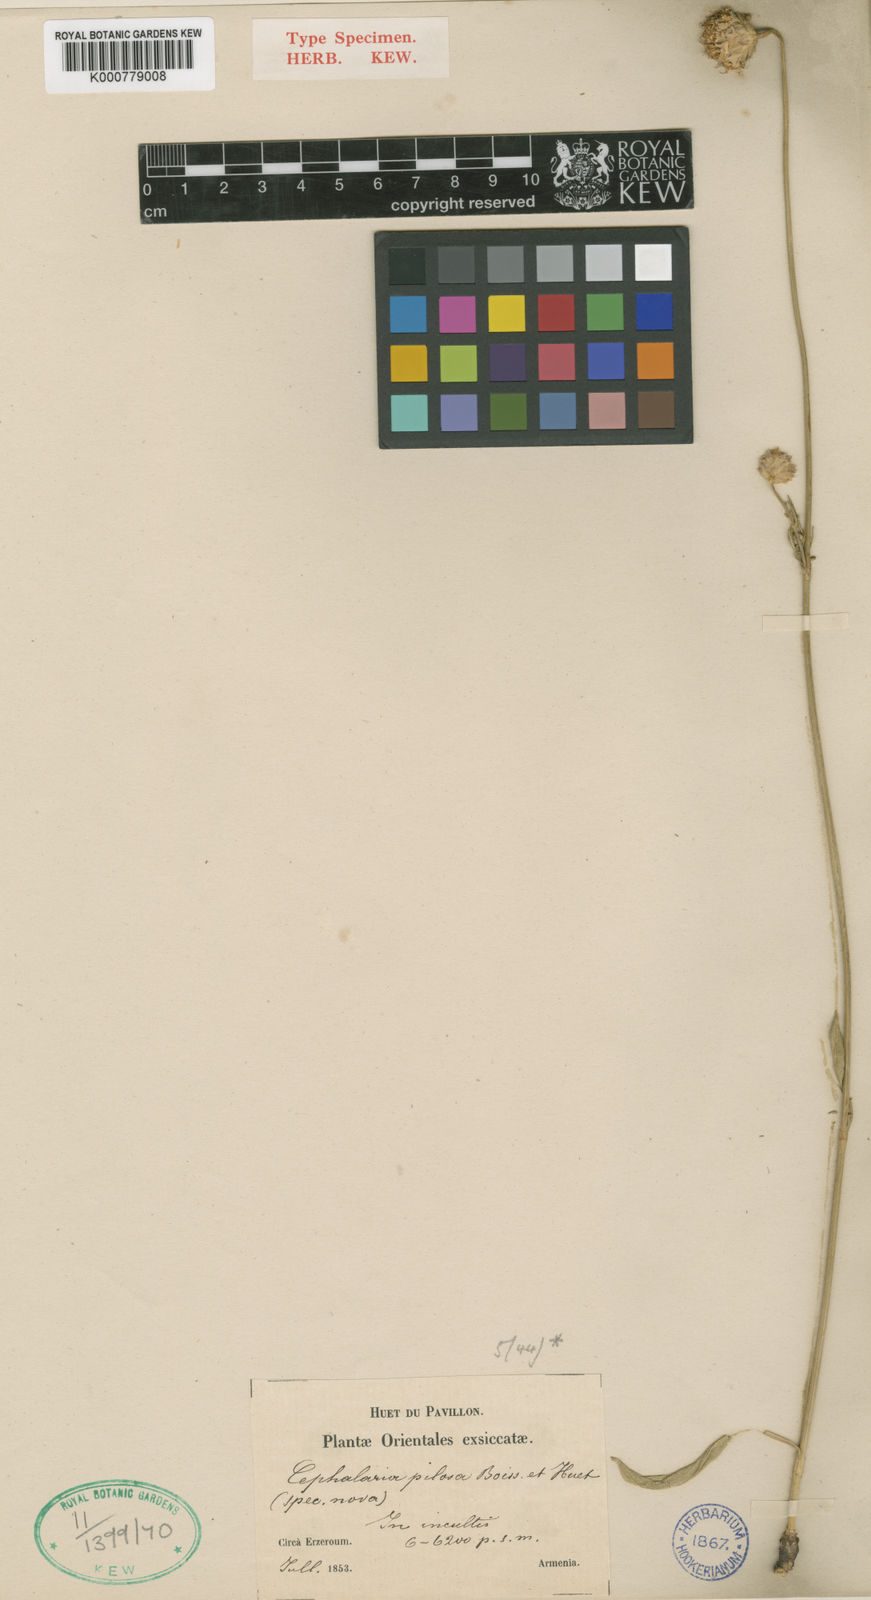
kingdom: Plantae
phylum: Tracheophyta
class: Magnoliopsida
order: Dipsacales
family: Caprifoliaceae
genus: Cephalaria
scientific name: Cephalaria sparsipilosa
